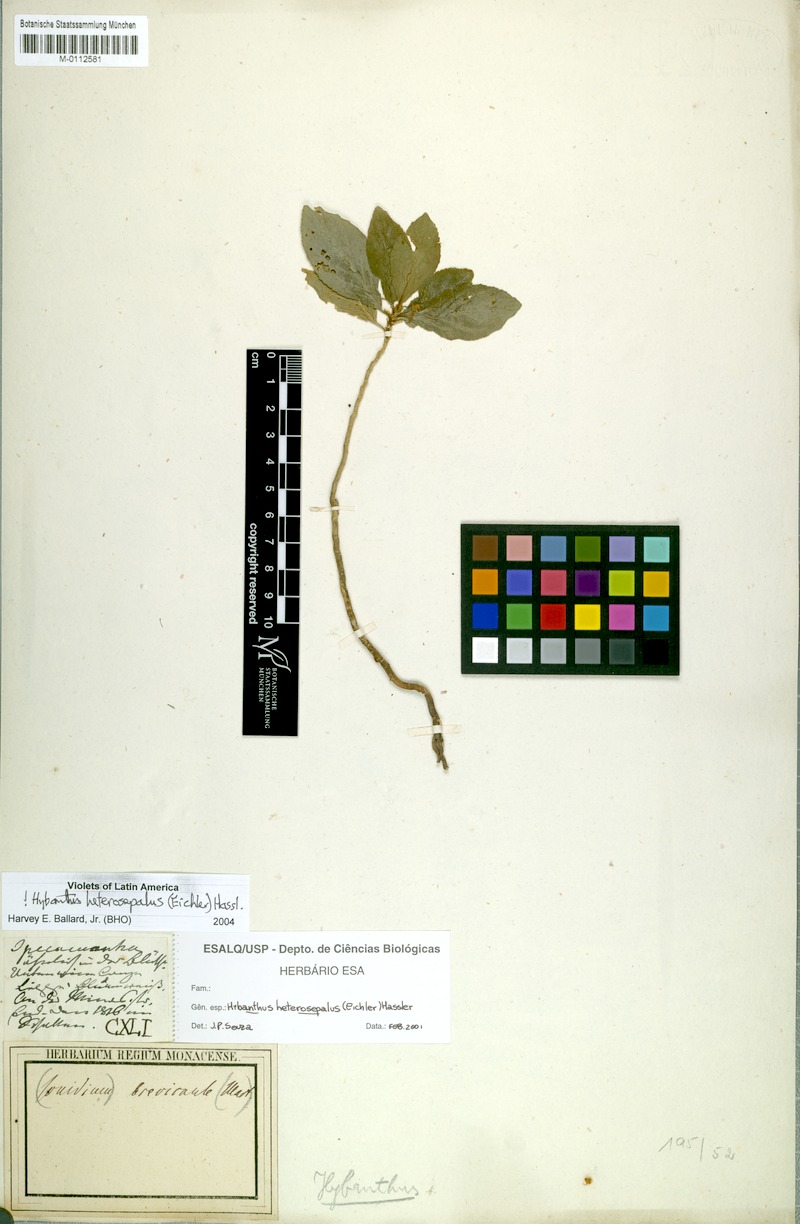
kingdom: Plantae
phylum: Tracheophyta
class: Magnoliopsida
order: Malpighiales
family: Violaceae
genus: Pombalia
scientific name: Pombalia heterosepala
